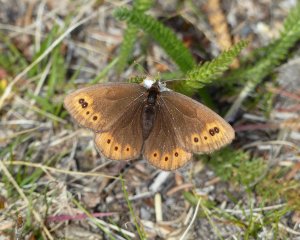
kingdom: Animalia
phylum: Arthropoda
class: Insecta
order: Lepidoptera
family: Nymphalidae
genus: Erebia
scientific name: Erebia epipsodea
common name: Common Alpine
